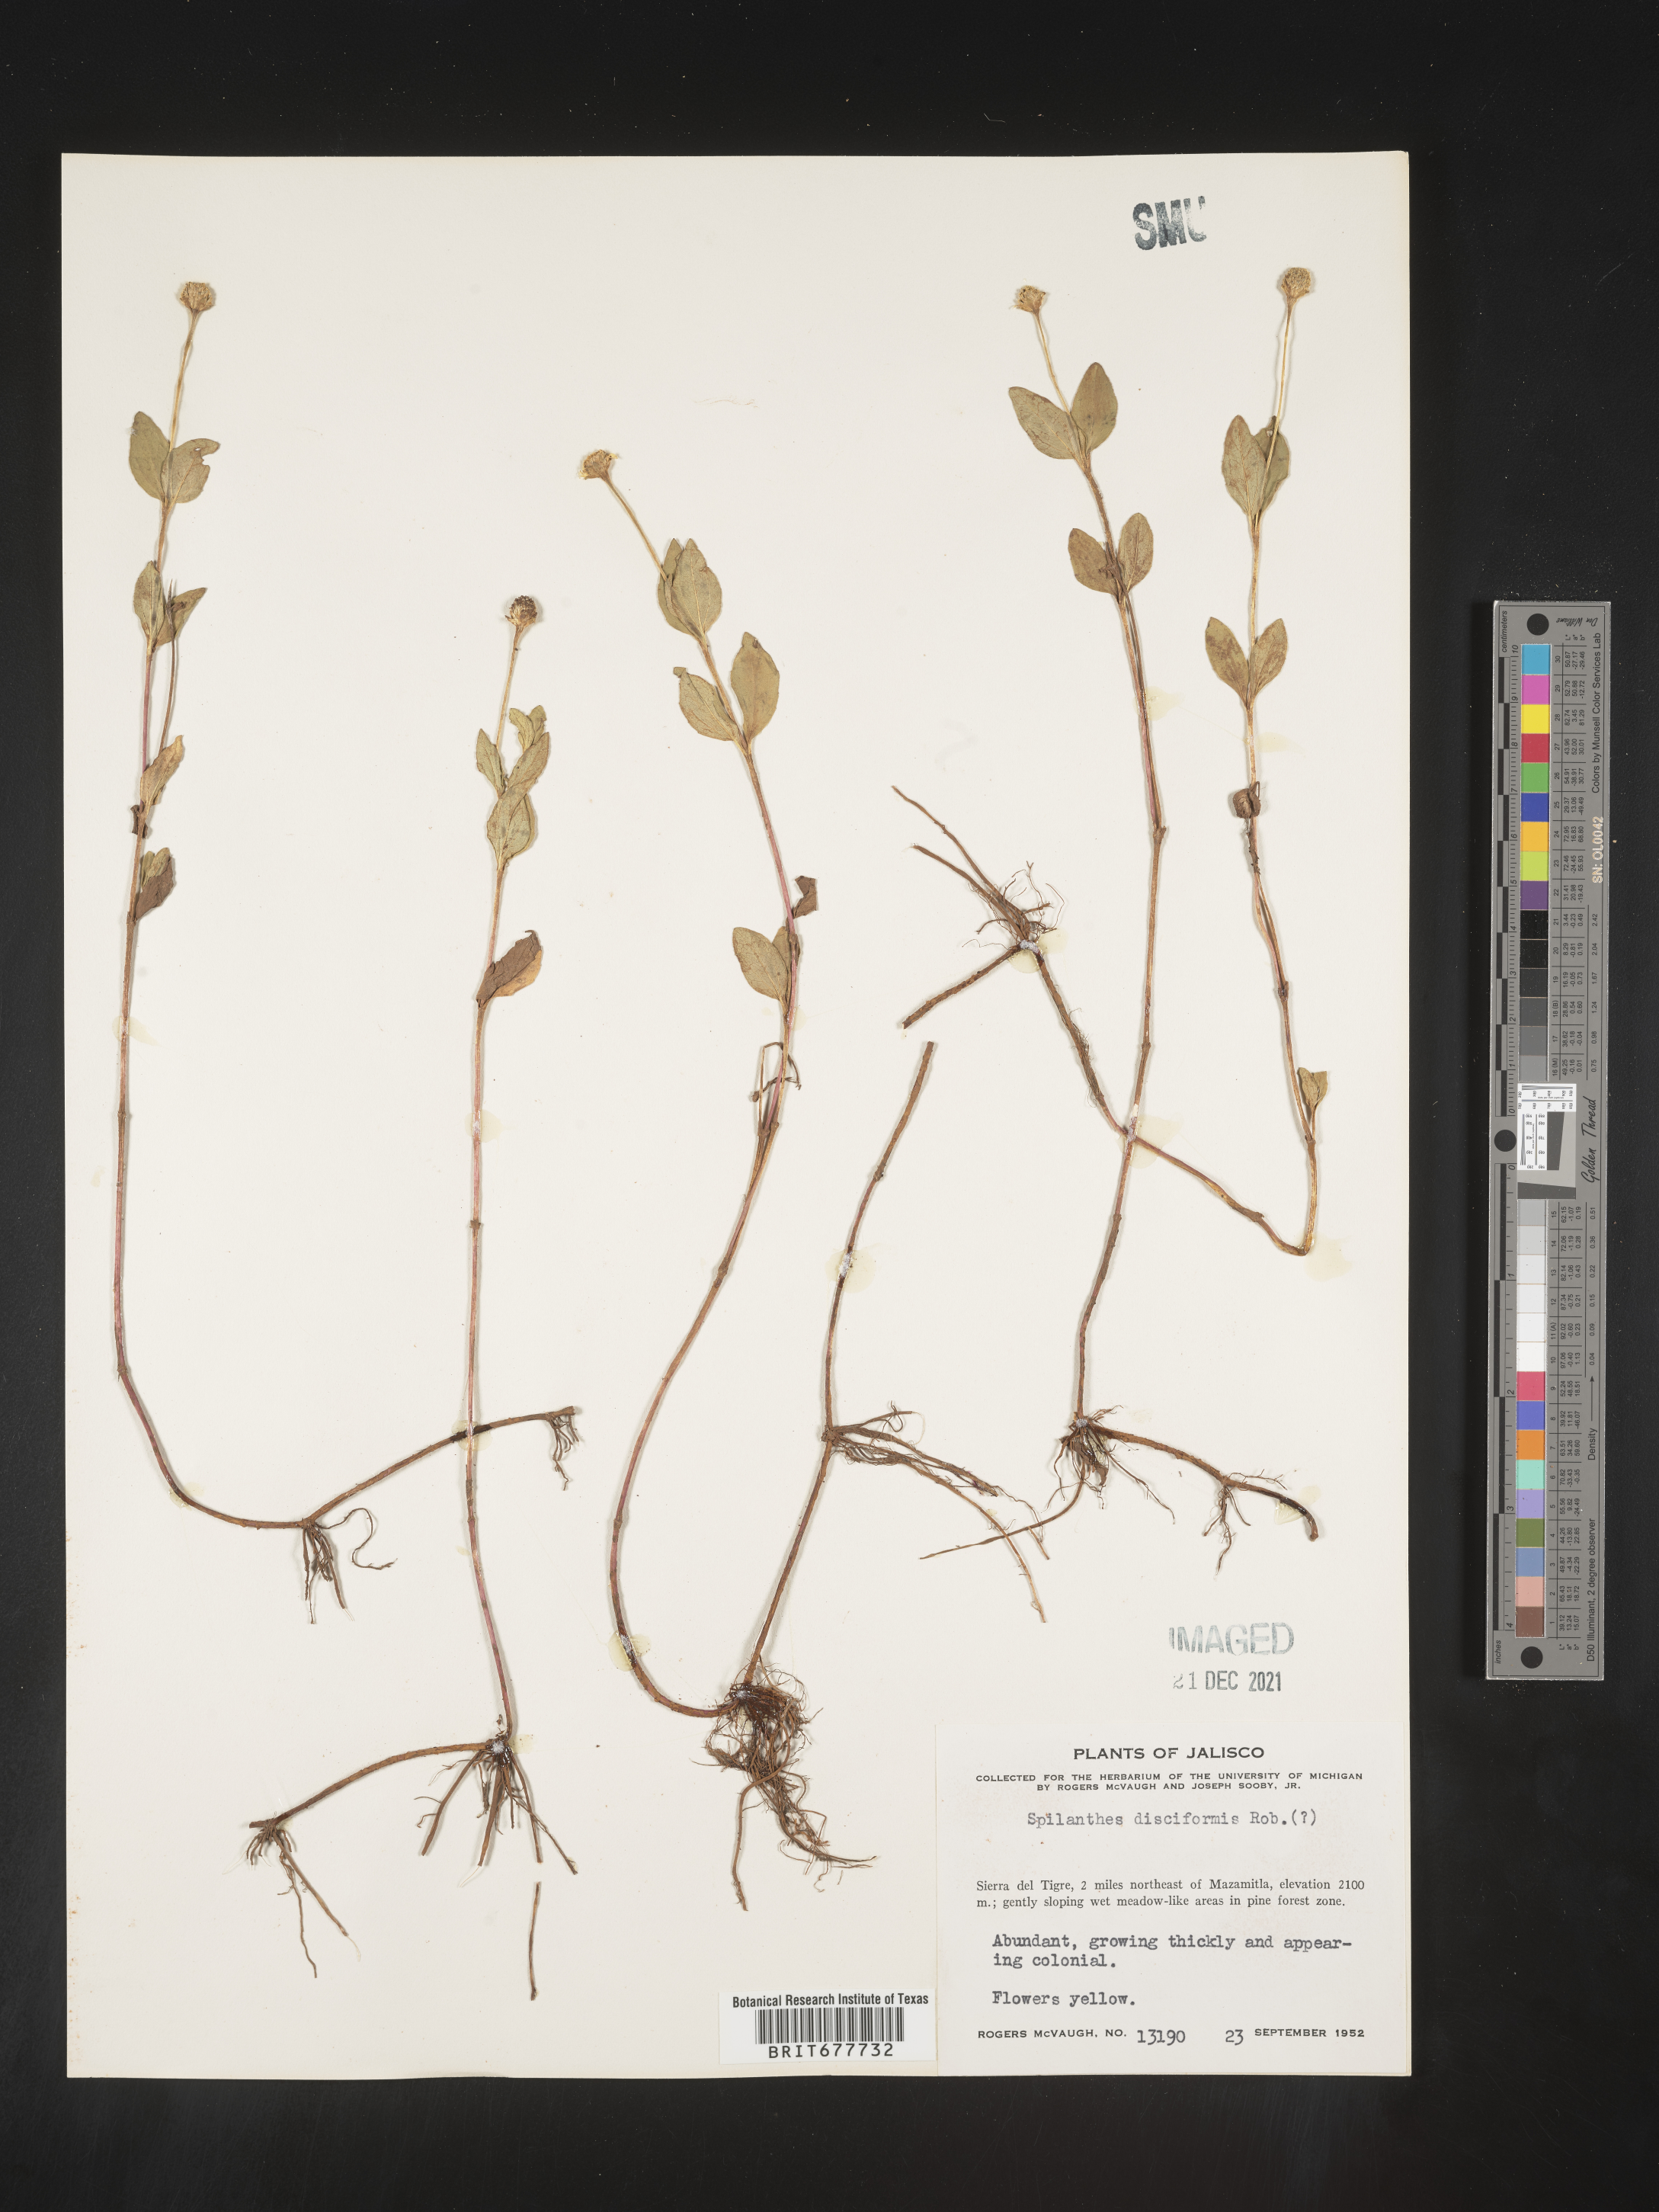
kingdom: Plantae
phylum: Tracheophyta
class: Magnoliopsida
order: Asterales
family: Asteraceae
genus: Spilanthes
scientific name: Spilanthes
